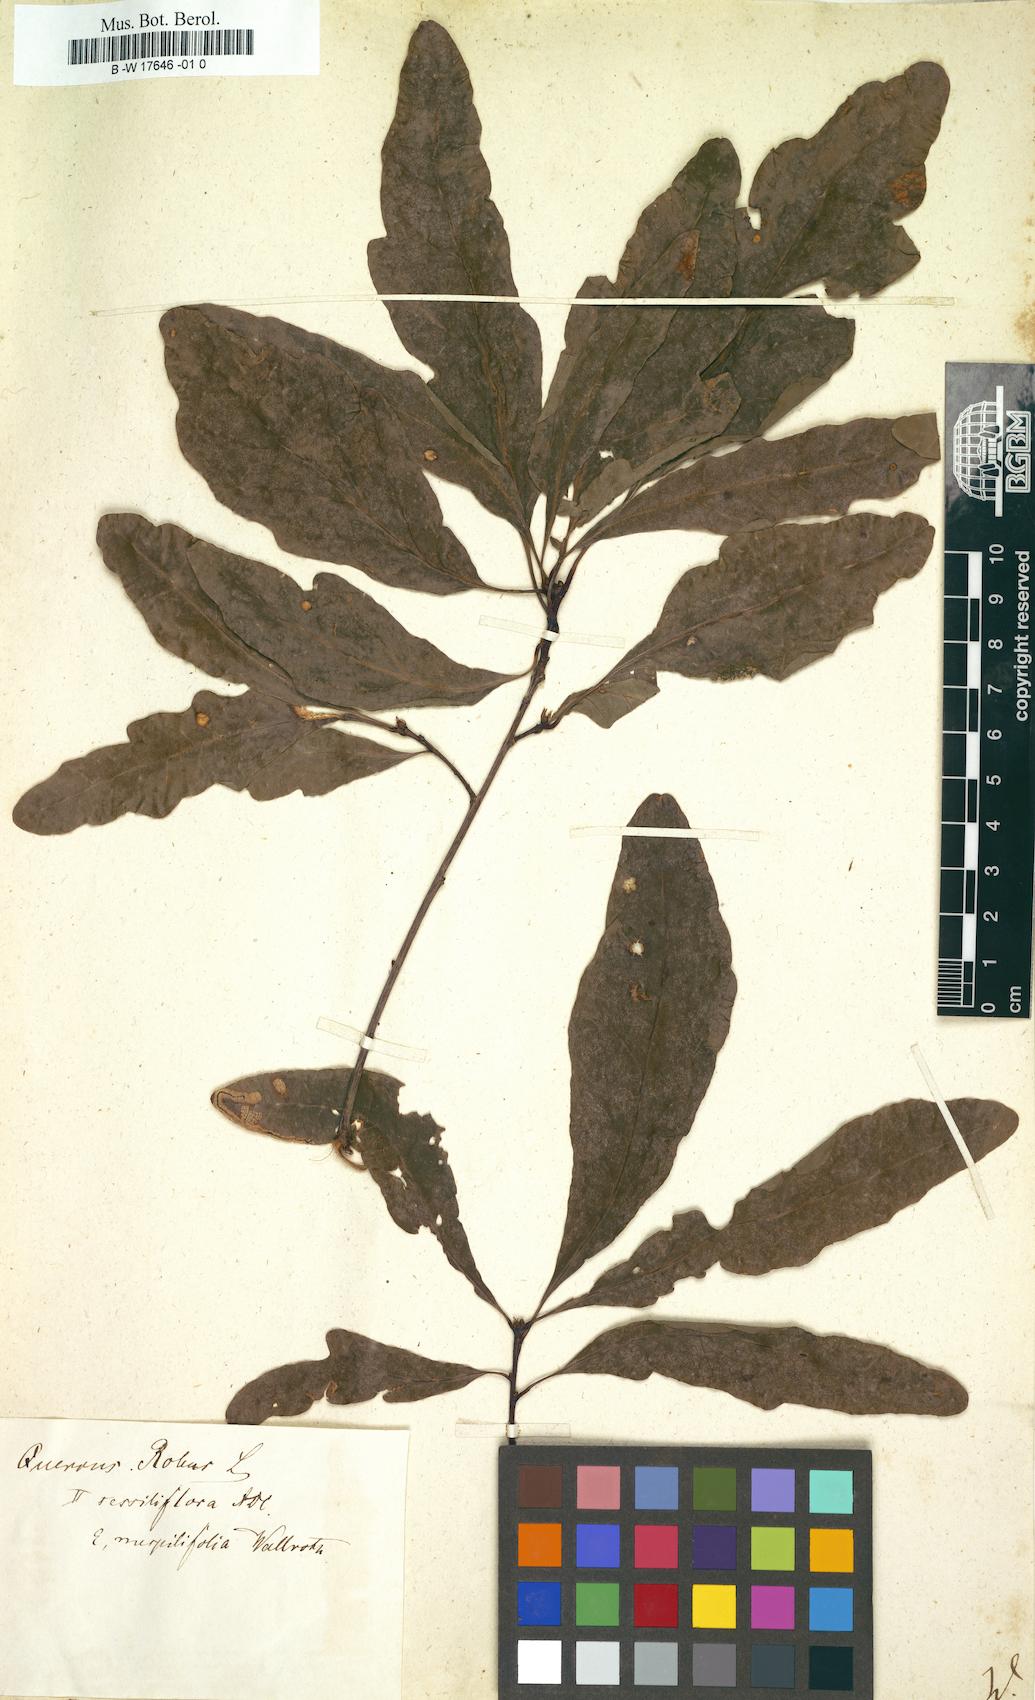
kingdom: Plantae
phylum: Tracheophyta
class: Magnoliopsida
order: Fagales
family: Fagaceae
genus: Quercus
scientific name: Quercus
